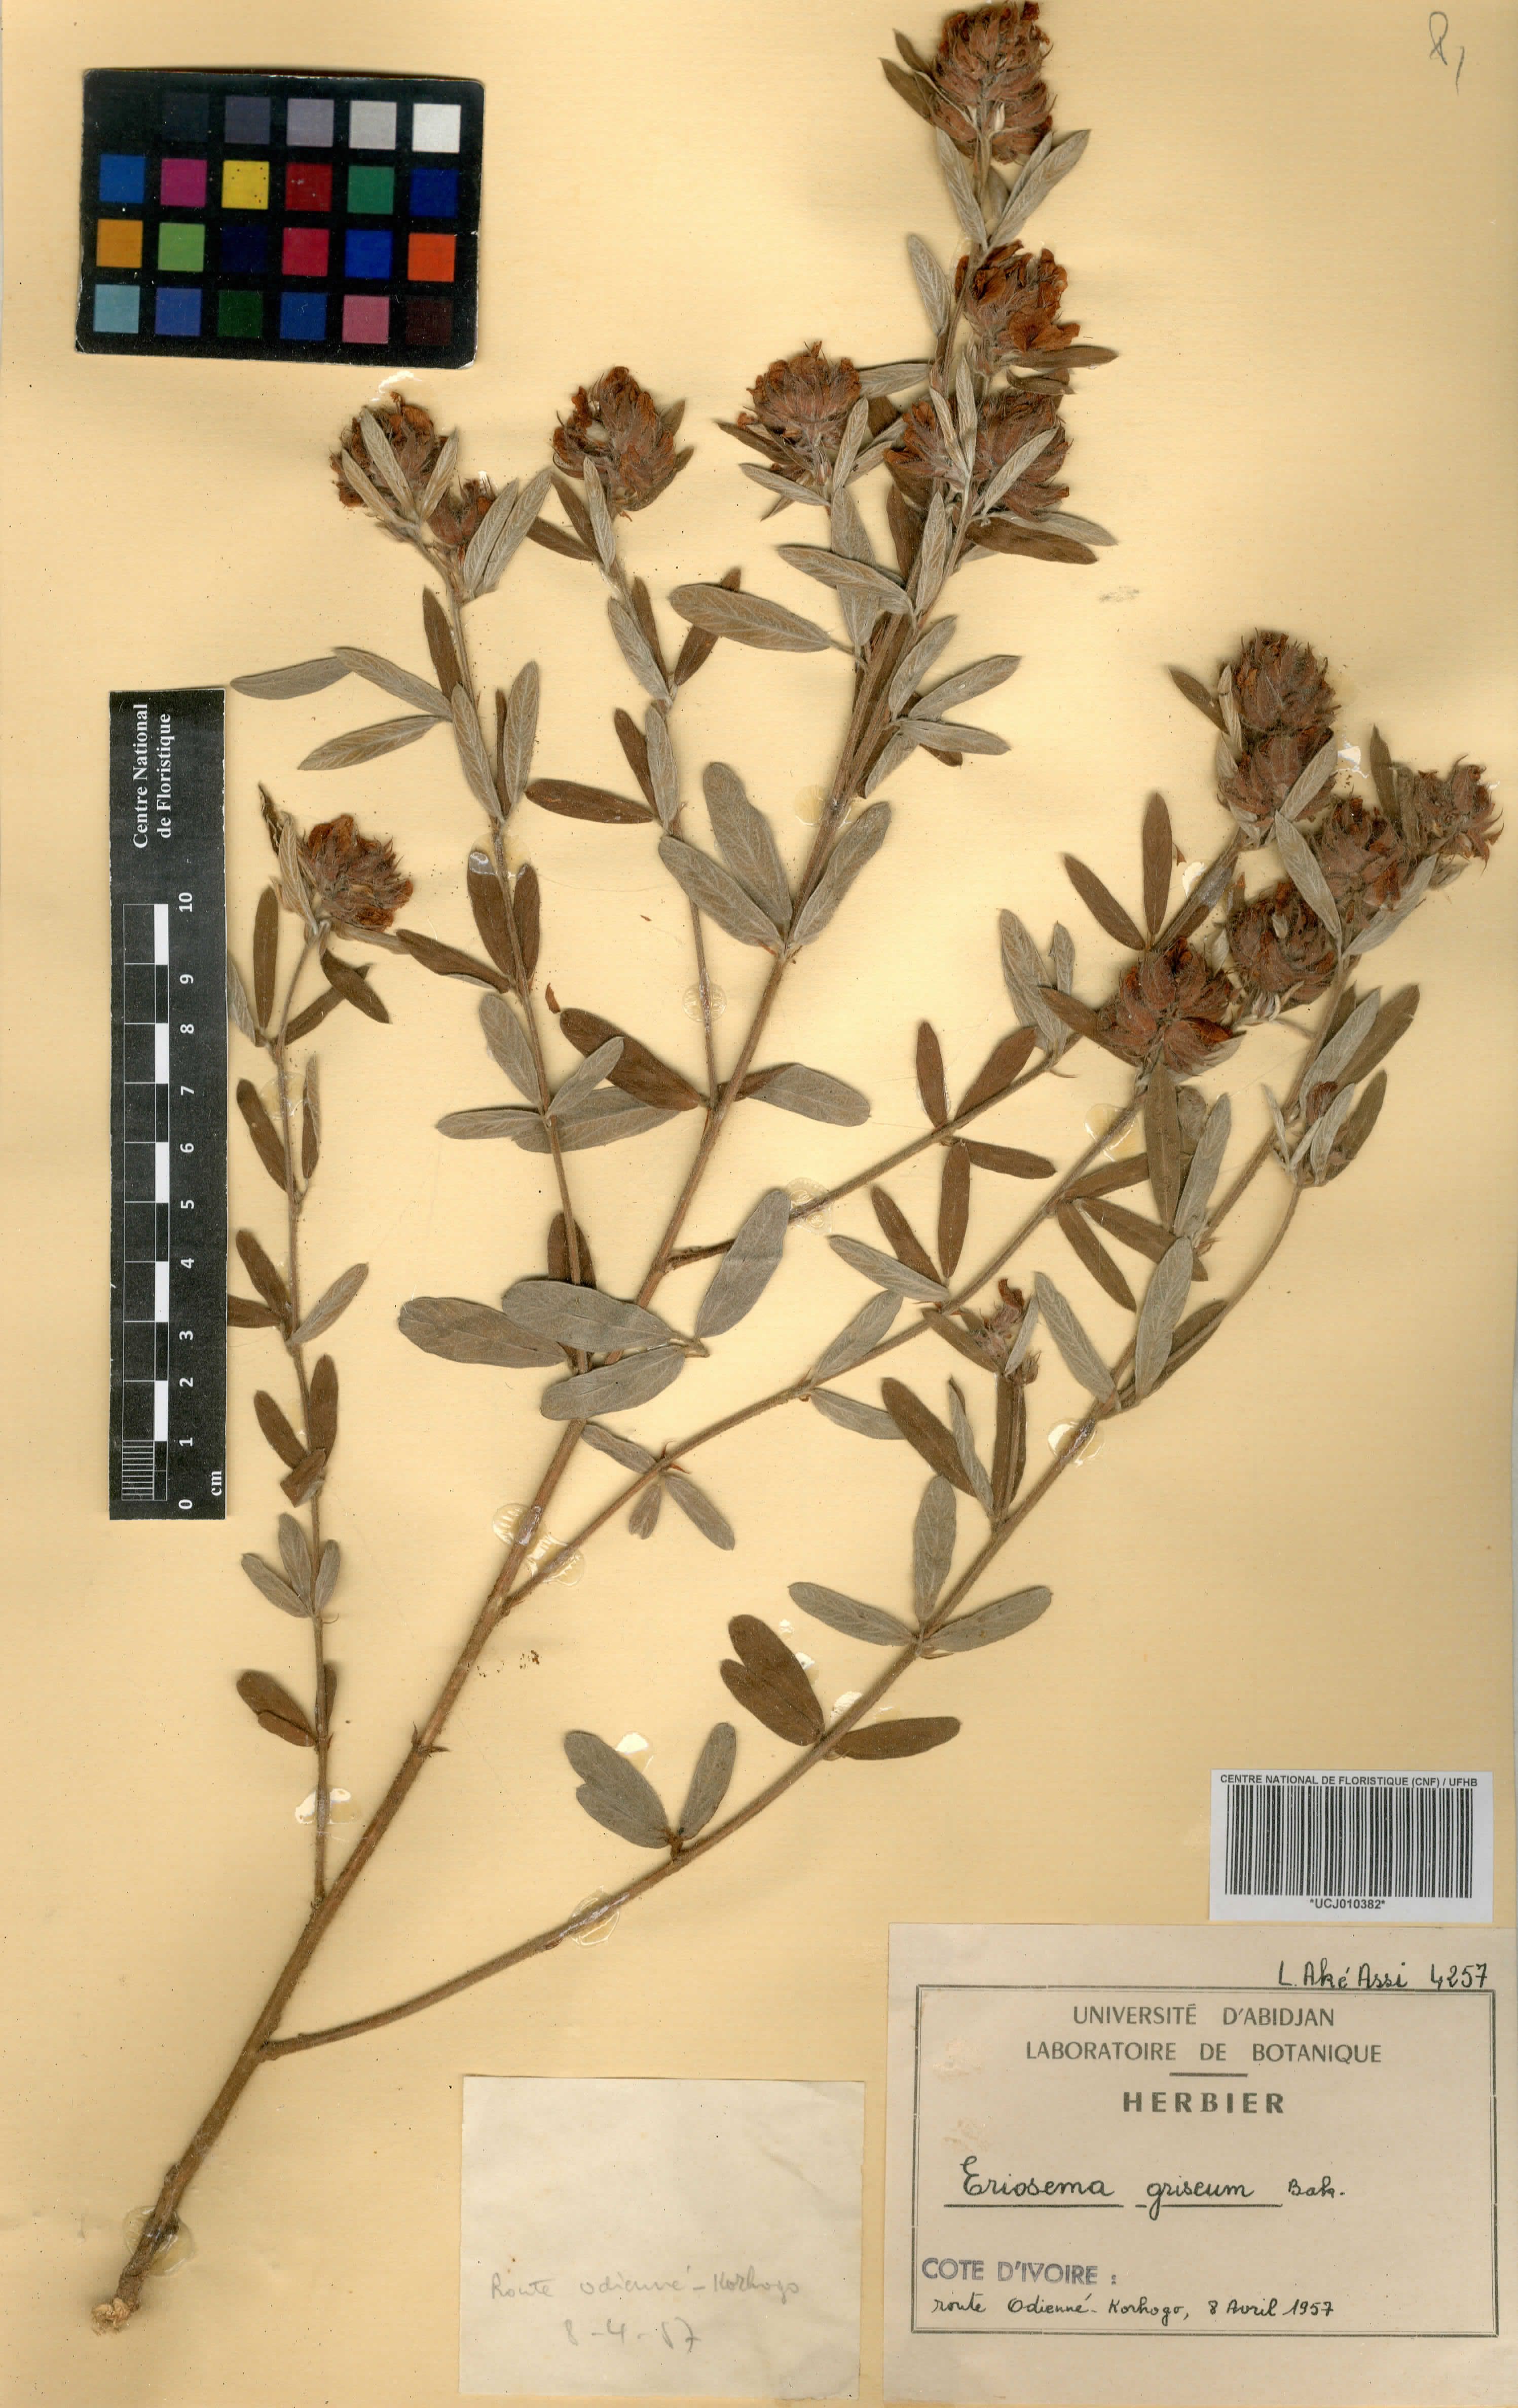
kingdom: Plantae
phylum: Tracheophyta
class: Magnoliopsida
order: Fabales
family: Fabaceae
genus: Eriosema
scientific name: Eriosema griseum
